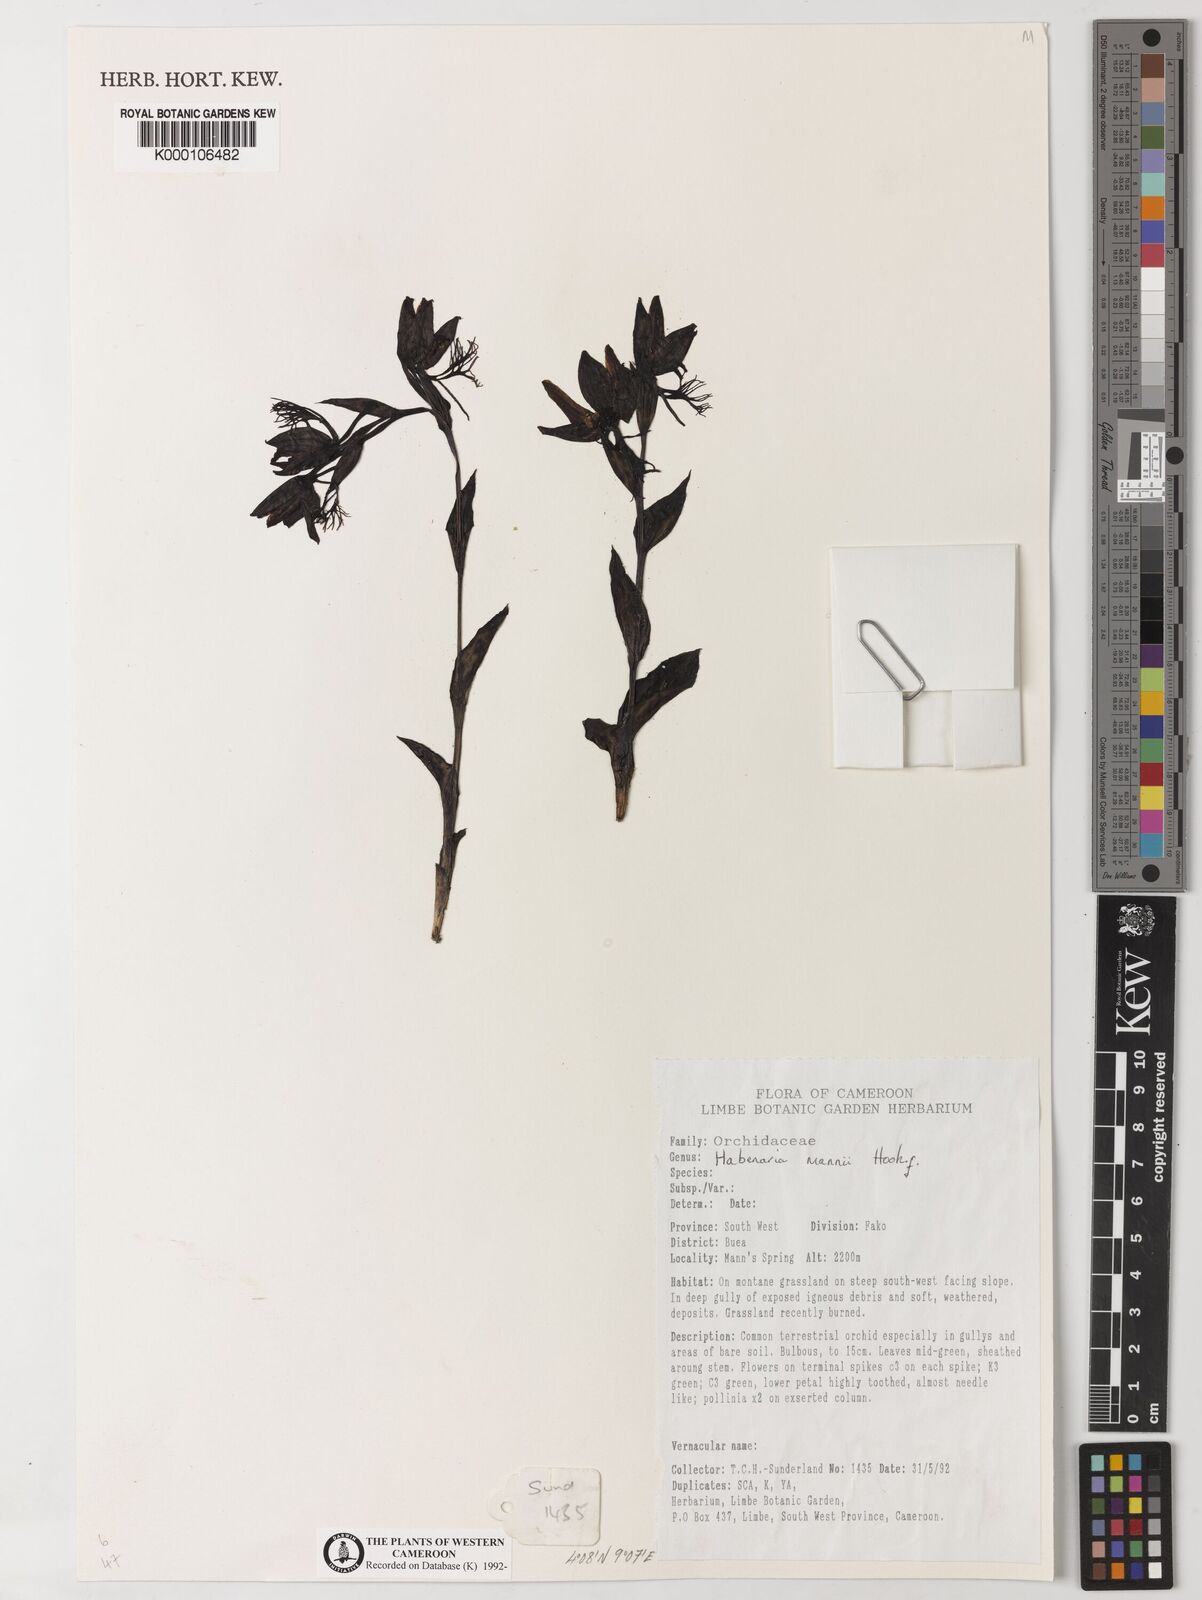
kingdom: Plantae
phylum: Tracheophyta
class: Liliopsida
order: Asparagales
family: Orchidaceae
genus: Habenaria
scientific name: Habenaria mannii
